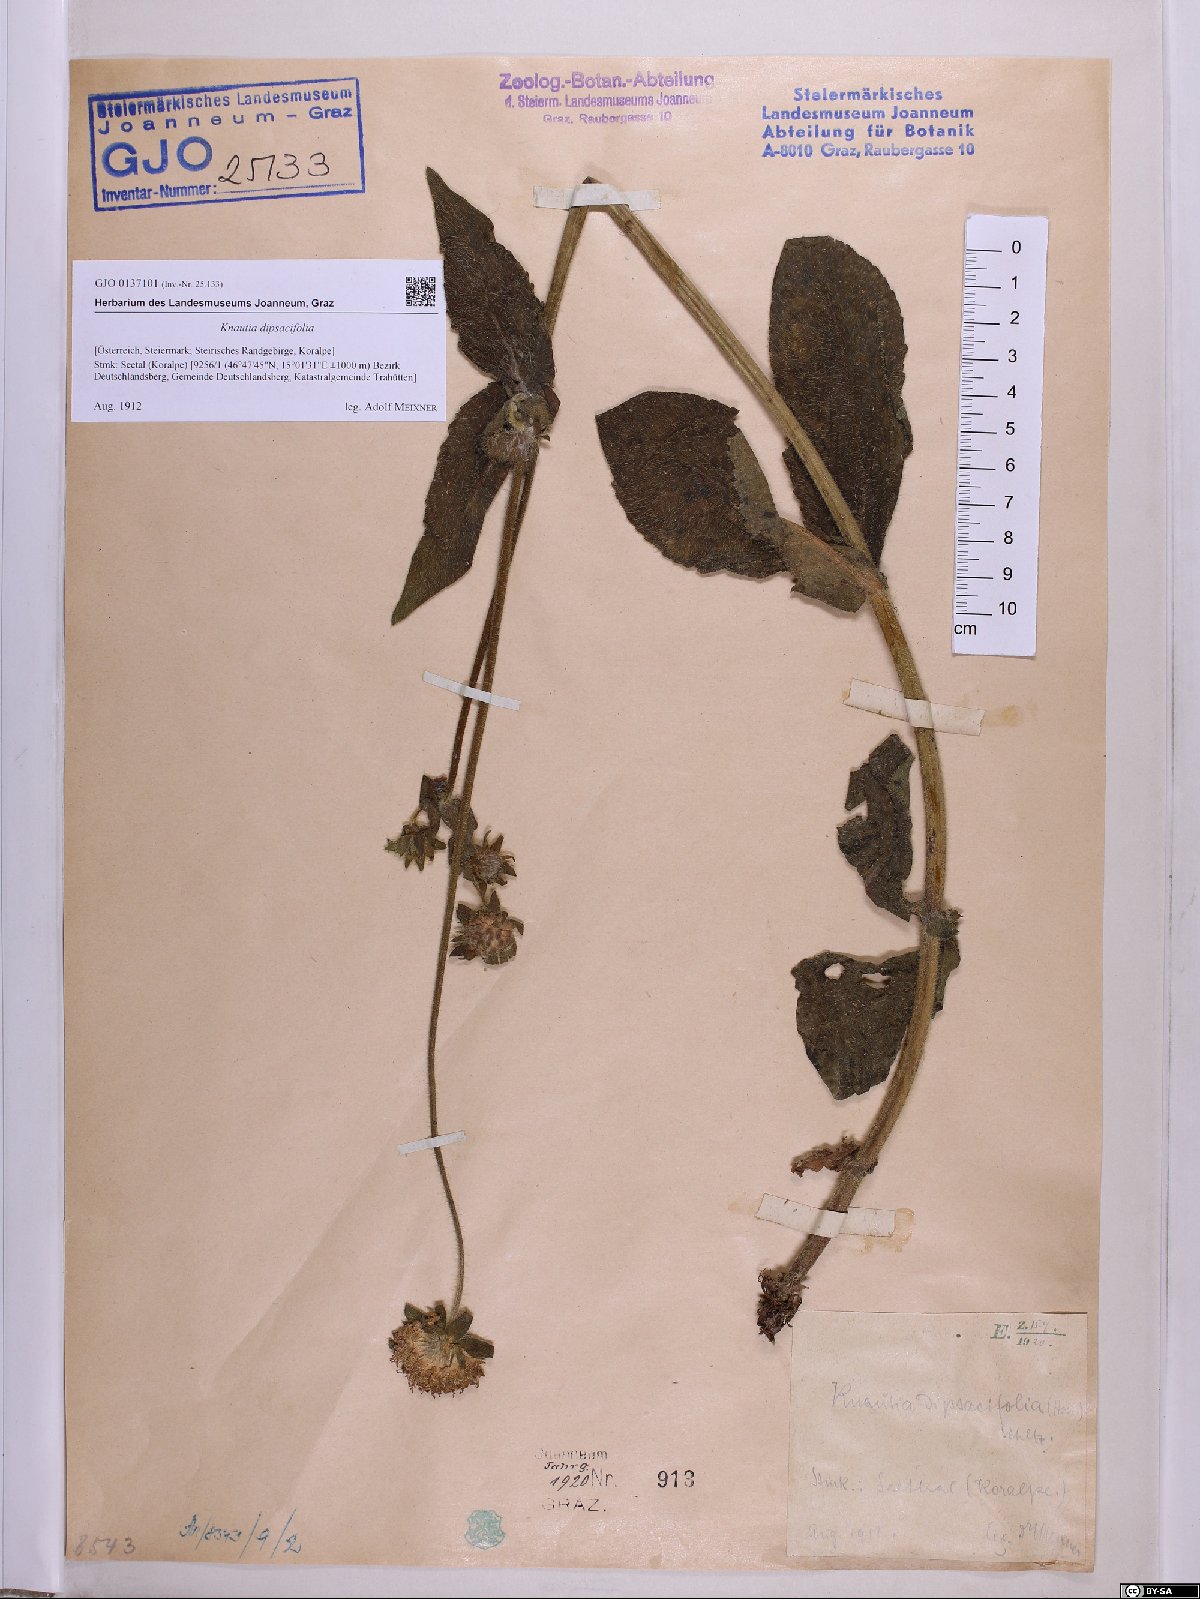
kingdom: Plantae
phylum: Tracheophyta
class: Magnoliopsida
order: Dipsacales
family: Caprifoliaceae
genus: Knautia
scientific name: Knautia dipsacifolia
